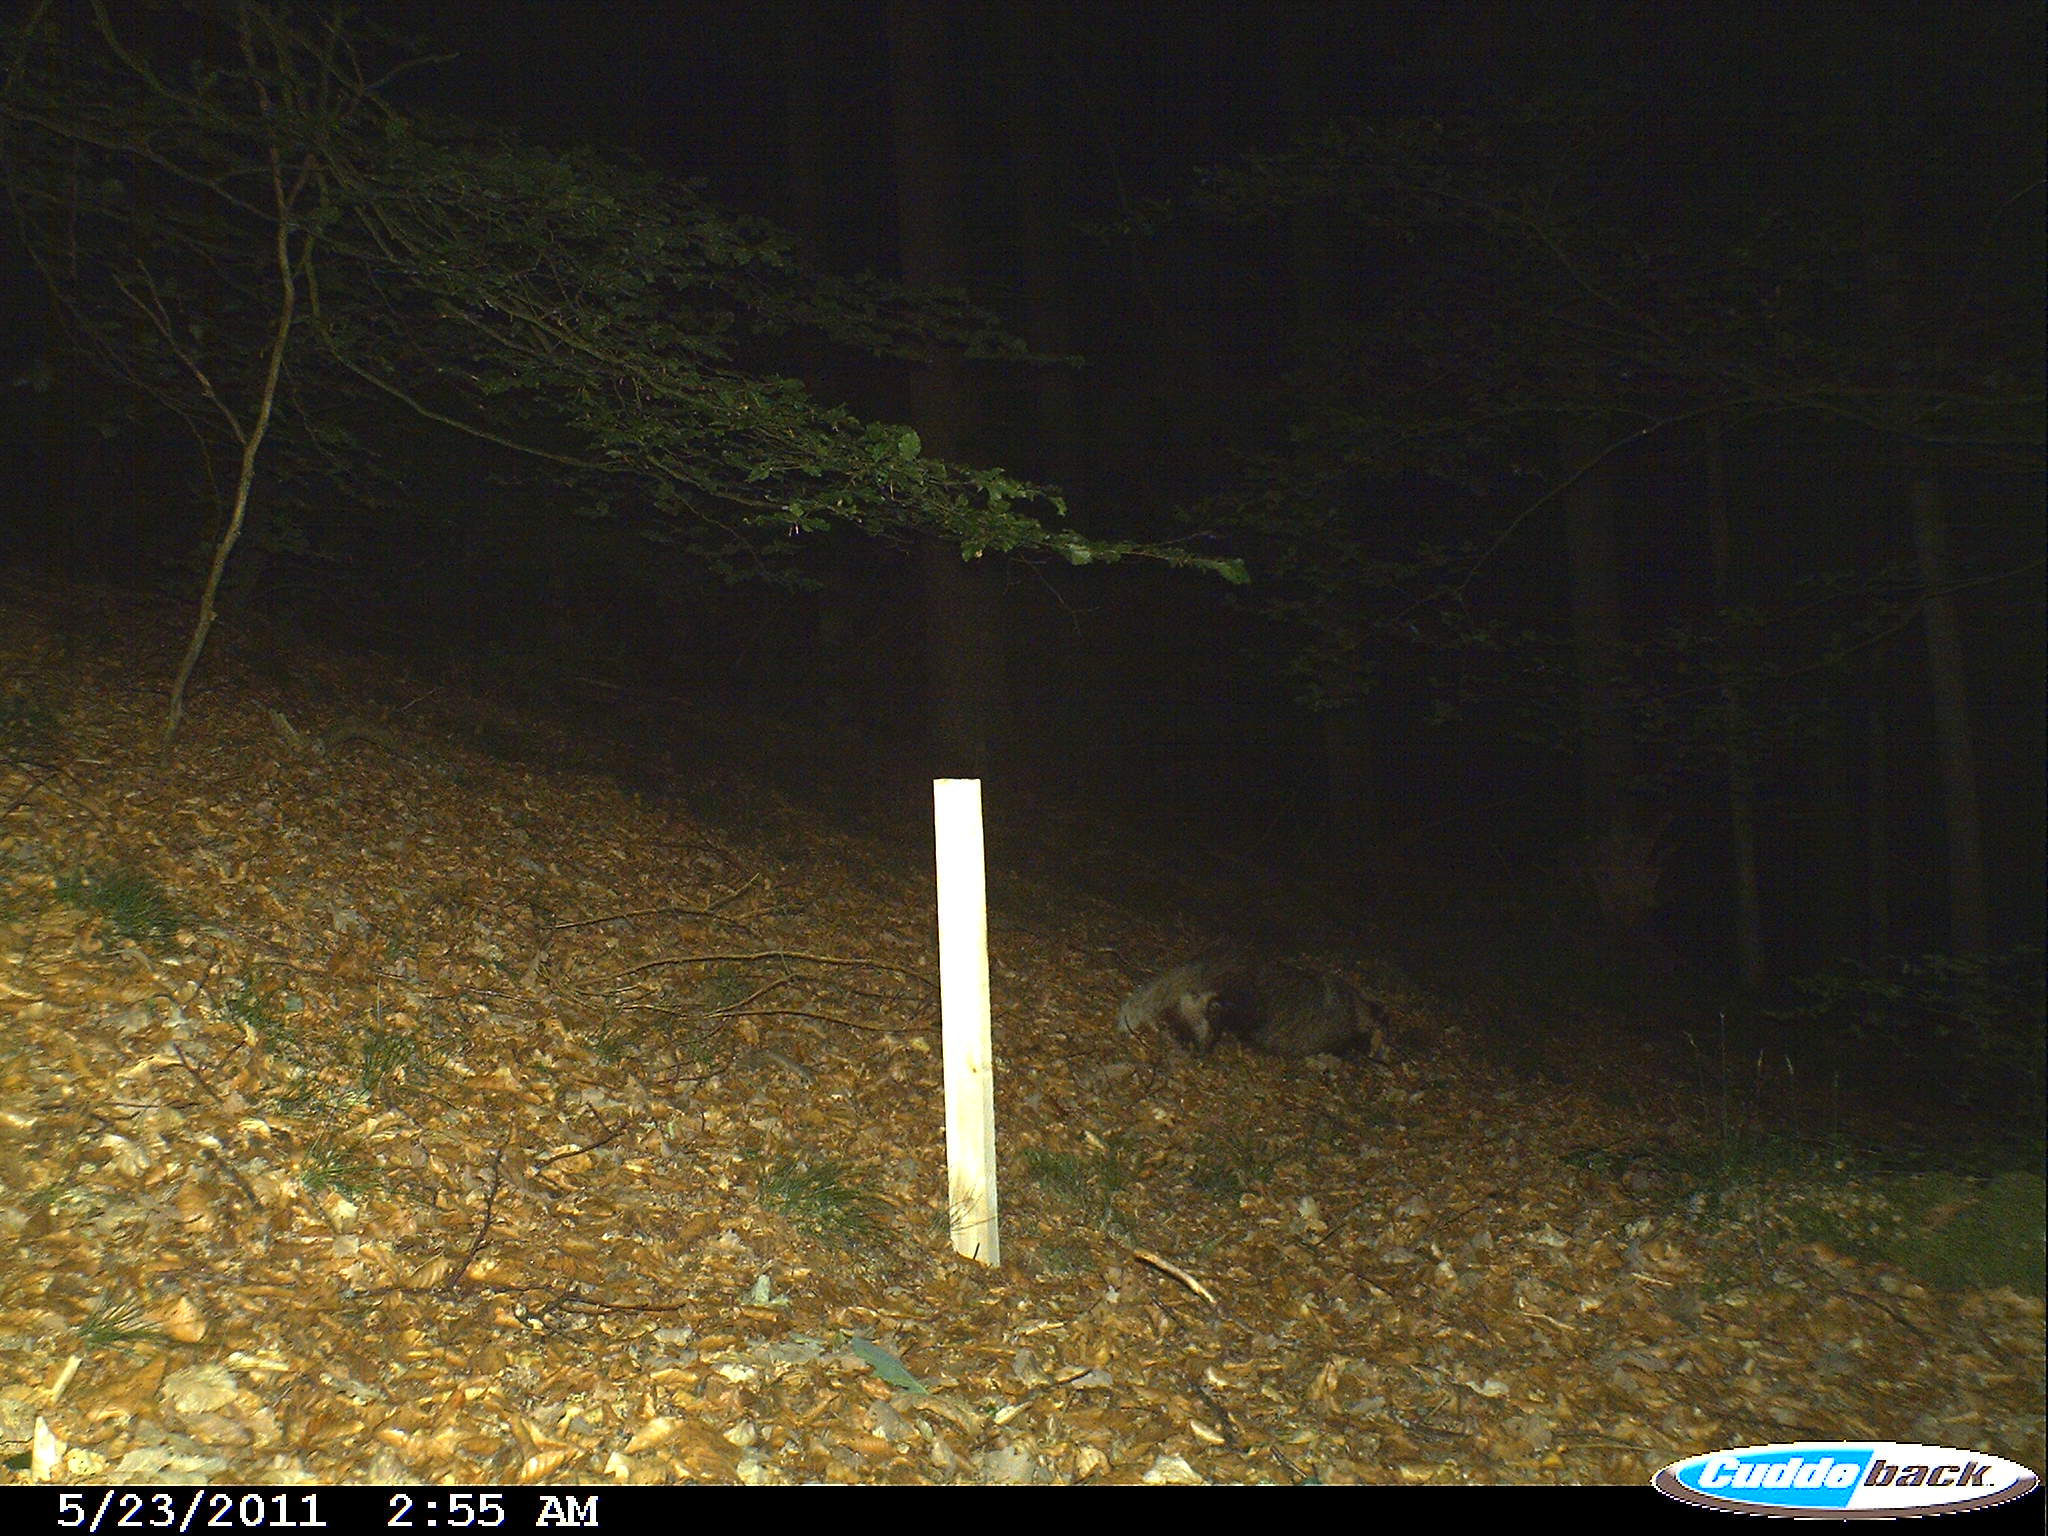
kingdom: Animalia
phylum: Chordata
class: Mammalia
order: Carnivora
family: Mustelidae
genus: Meles
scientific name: Meles meles
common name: Eurasian badger
